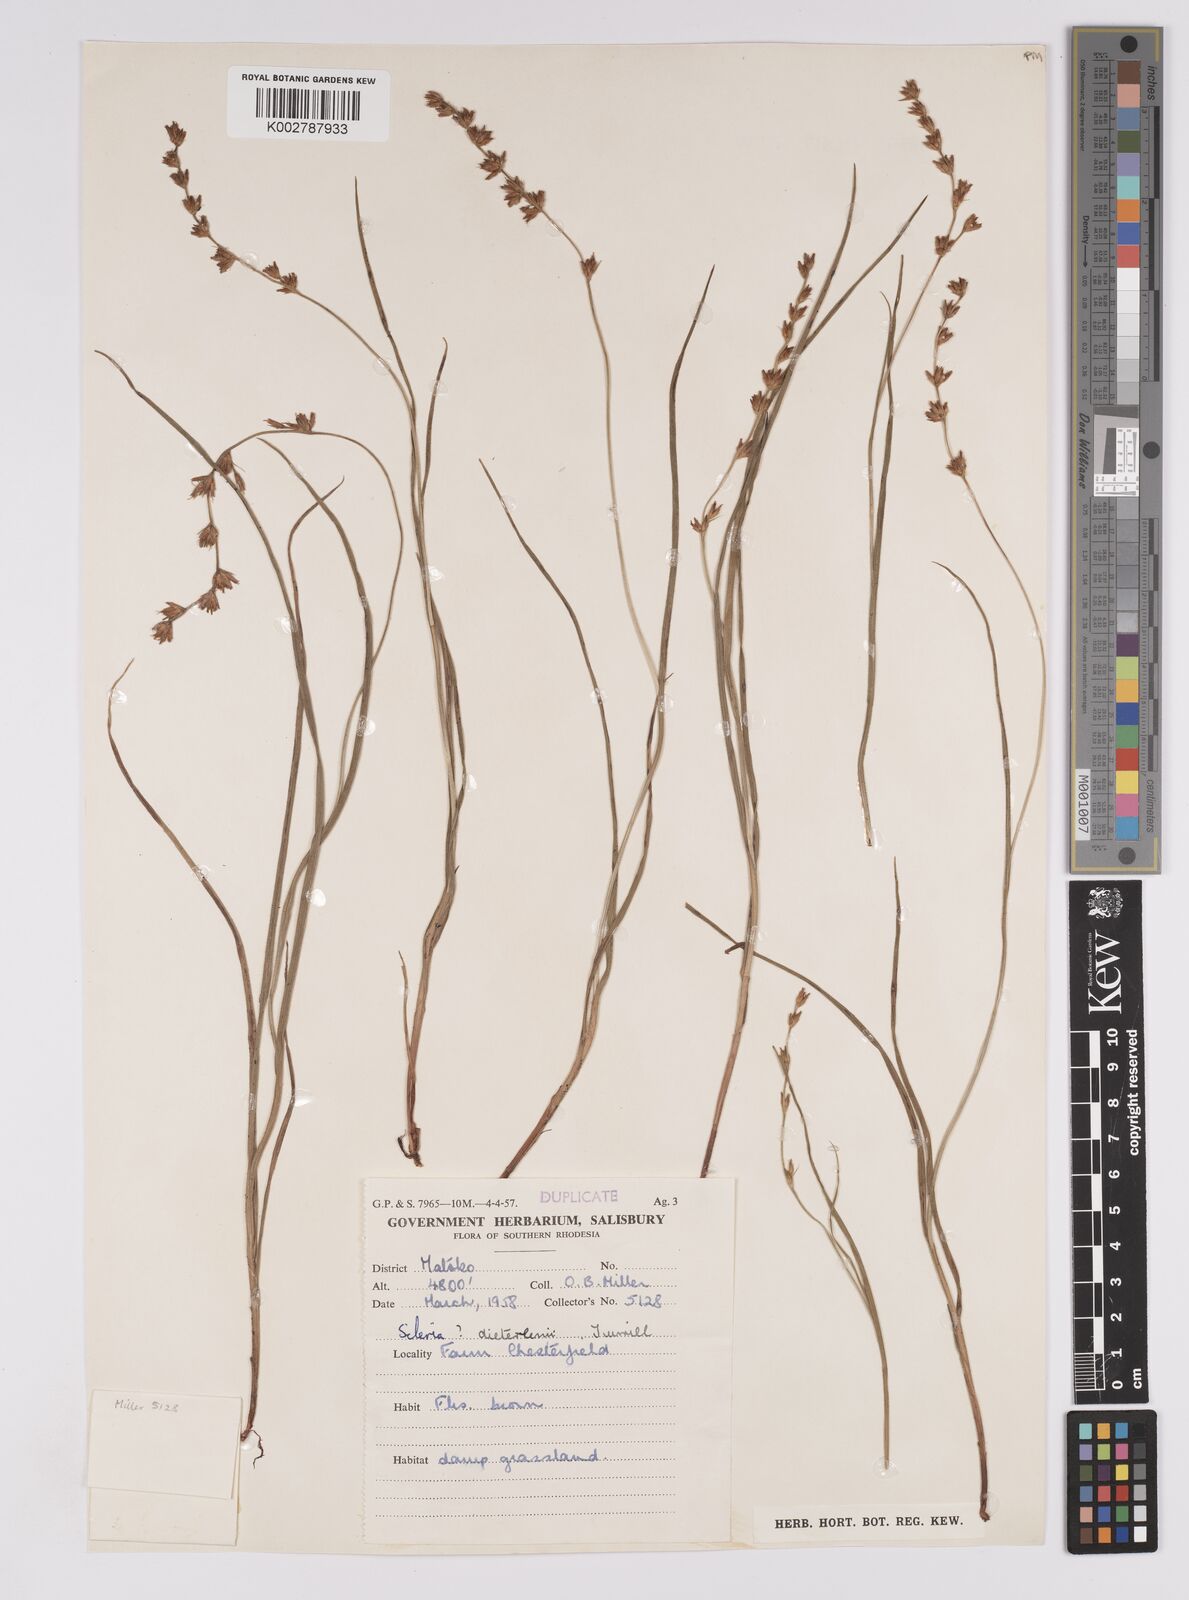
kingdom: Plantae
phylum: Tracheophyta
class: Liliopsida
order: Poales
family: Cyperaceae
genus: Scleria
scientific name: Scleria flexuosa
